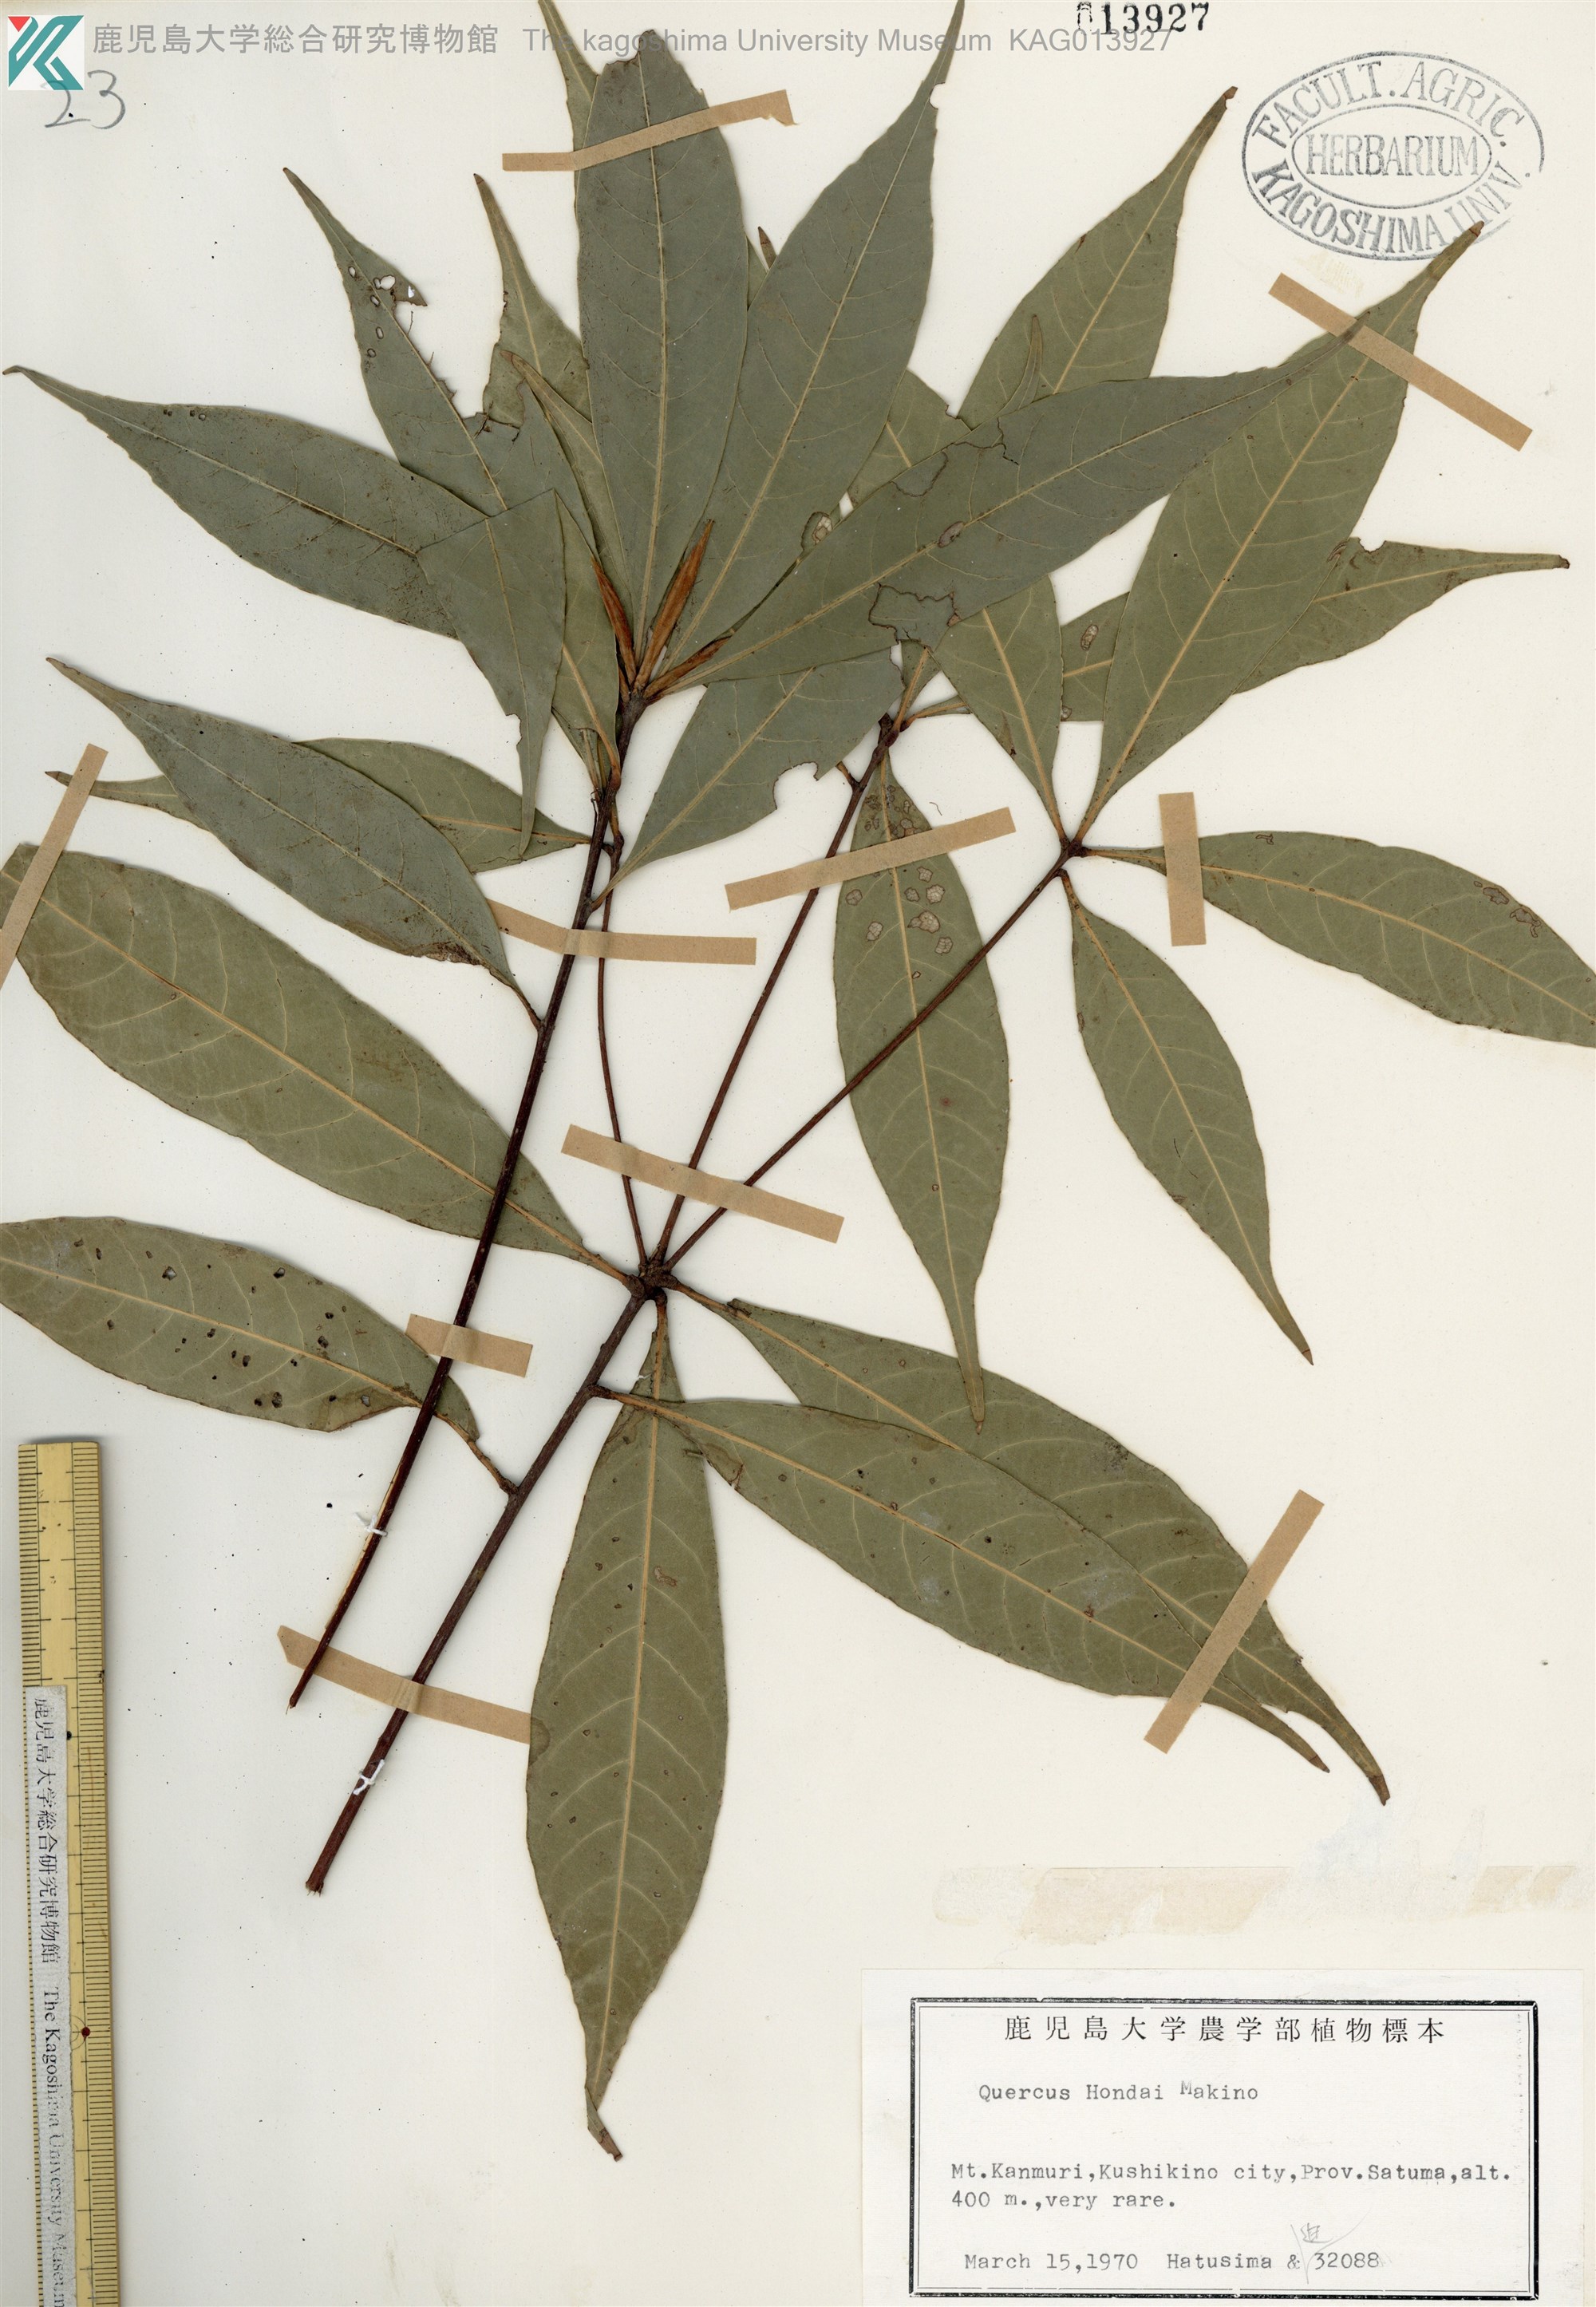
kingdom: Plantae
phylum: Tracheophyta
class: Magnoliopsida
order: Fagales
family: Fagaceae
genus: Quercus
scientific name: Quercus hondae
